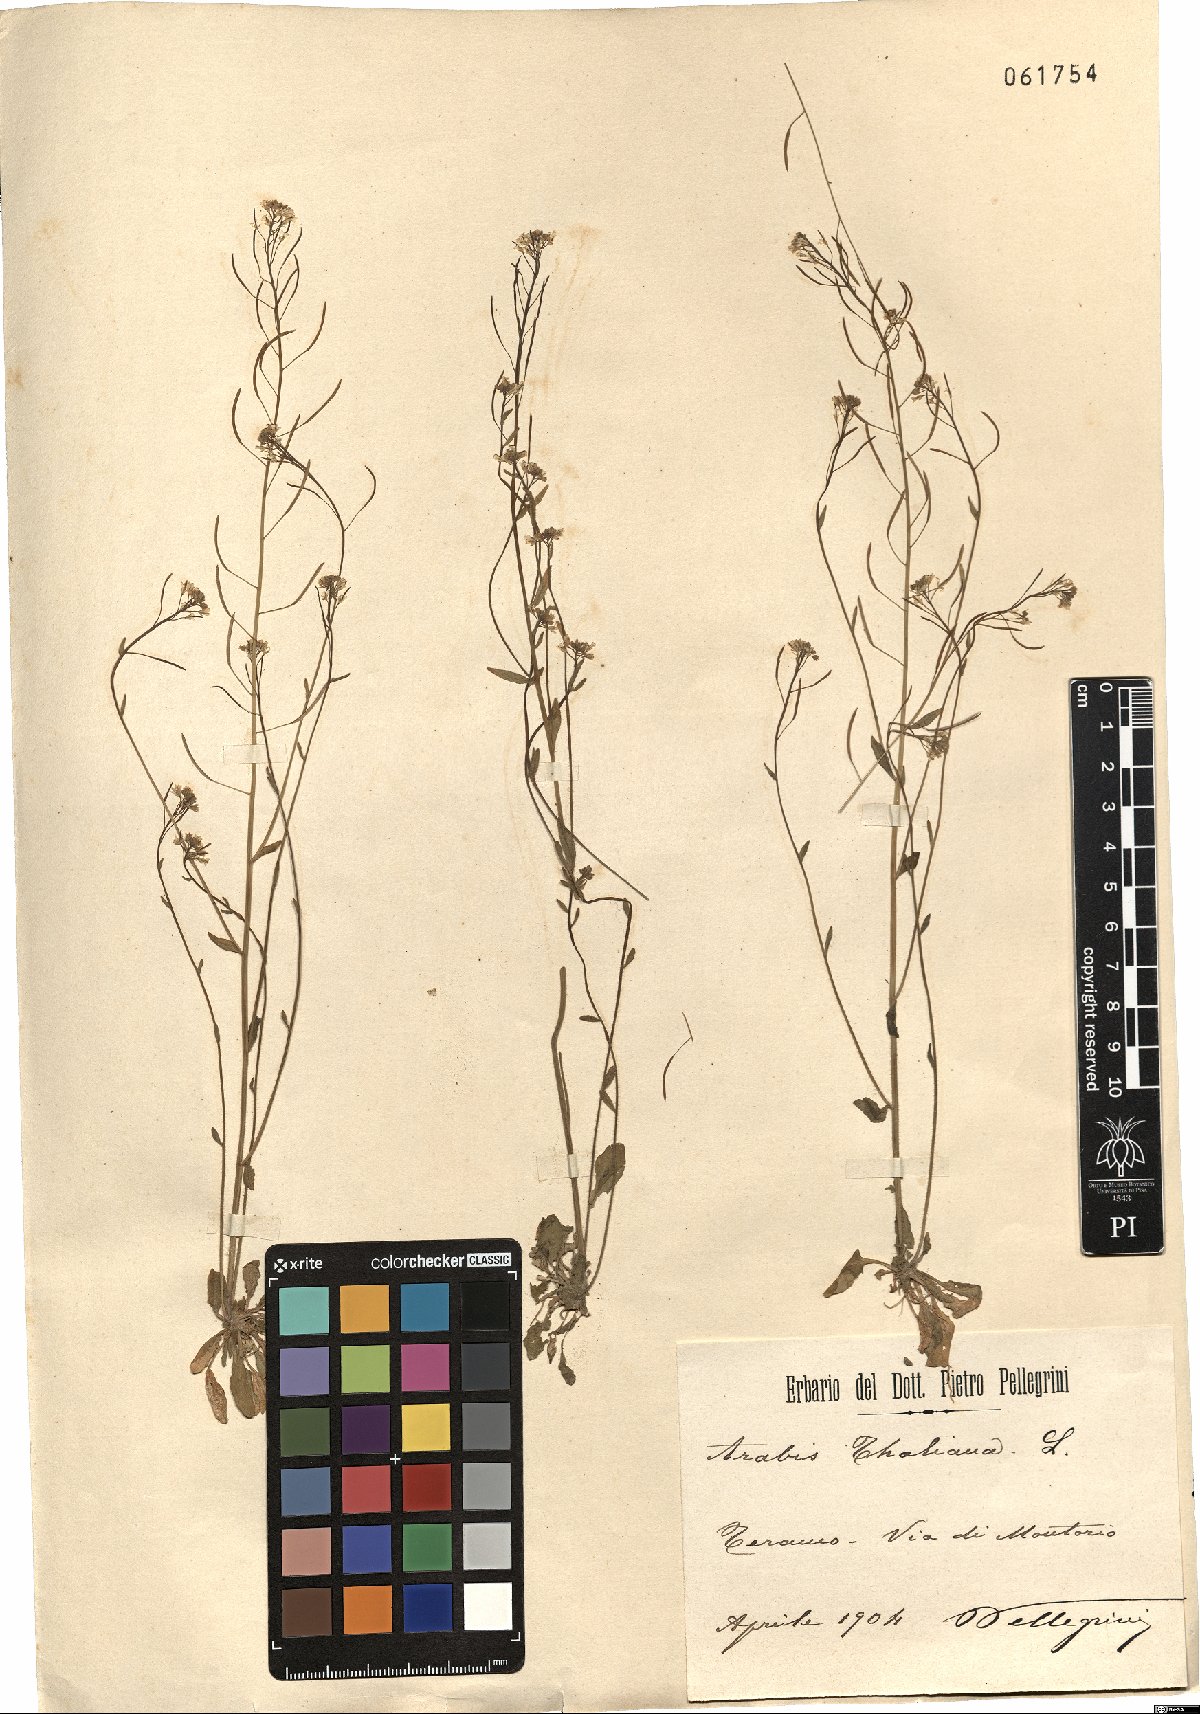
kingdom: Plantae
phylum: Tracheophyta
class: Magnoliopsida
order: Brassicales
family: Brassicaceae
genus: Arabidopsis
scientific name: Arabidopsis thaliana
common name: Thale cress
